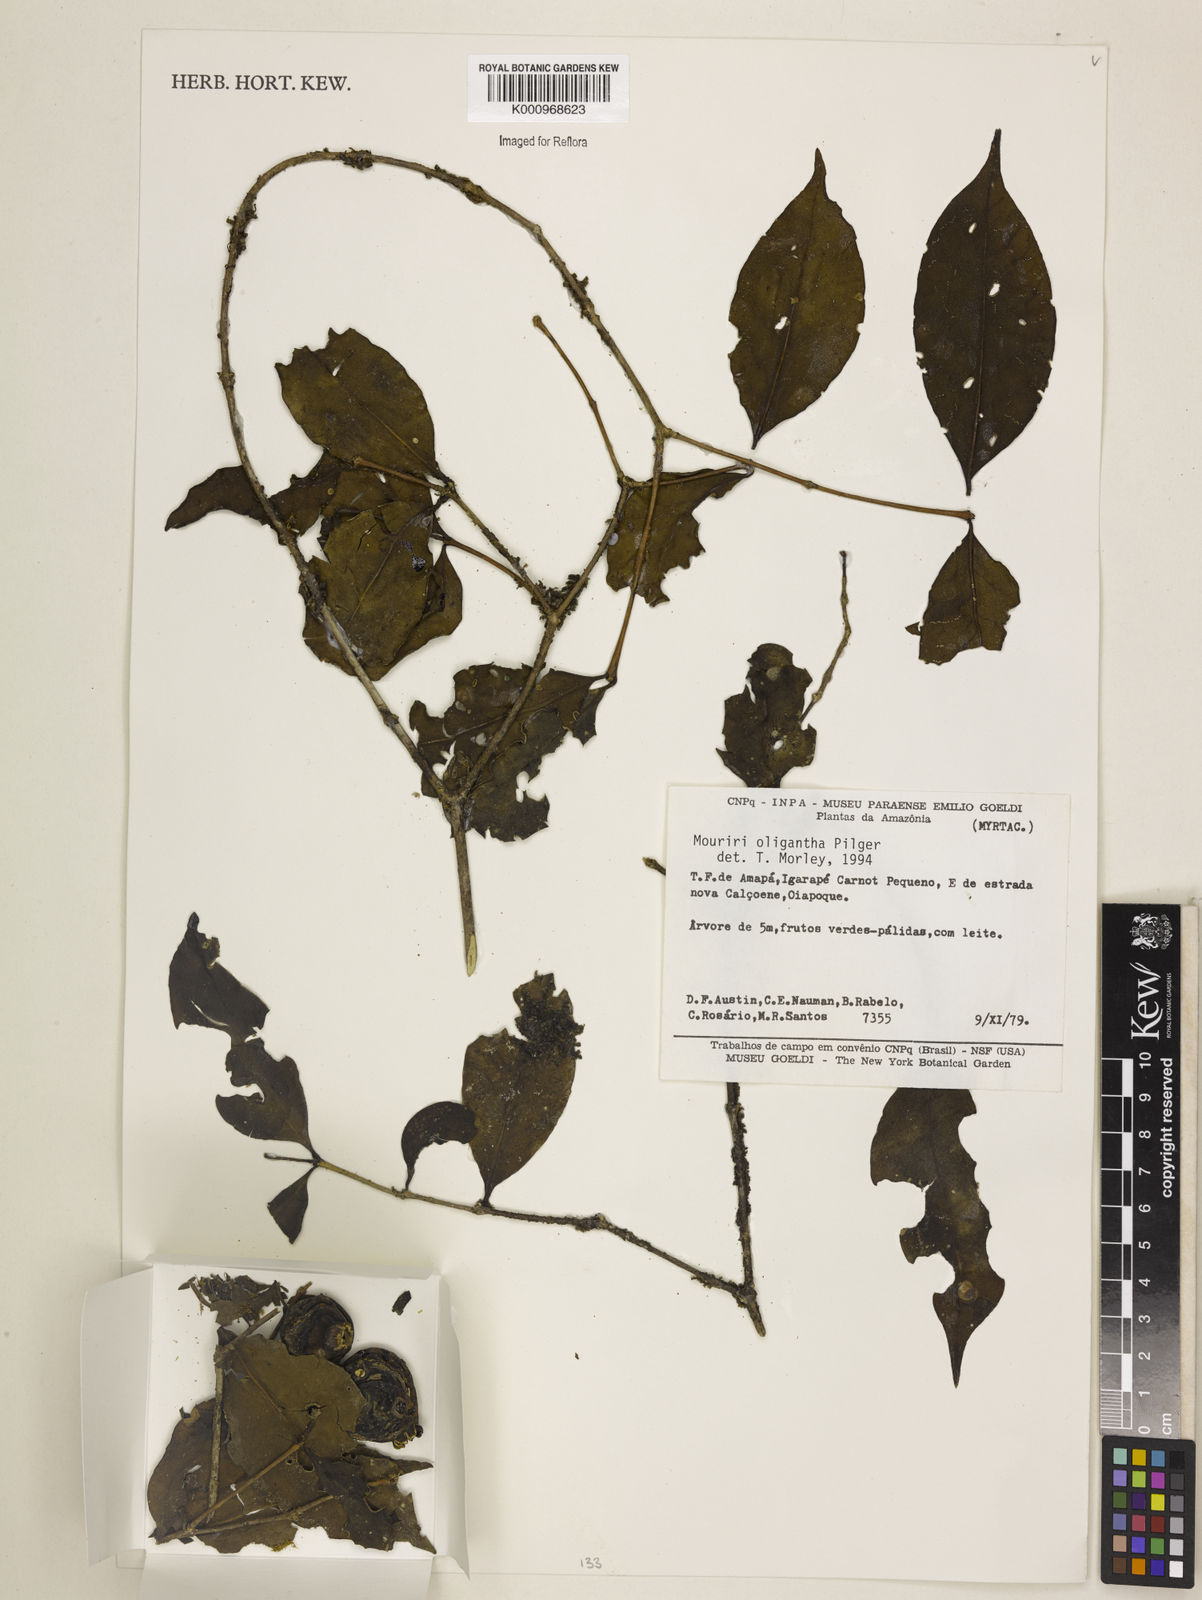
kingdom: Plantae
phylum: Tracheophyta
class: Magnoliopsida
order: Myrtales
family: Melastomataceae
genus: Mouriri
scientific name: Mouriri oligantha
